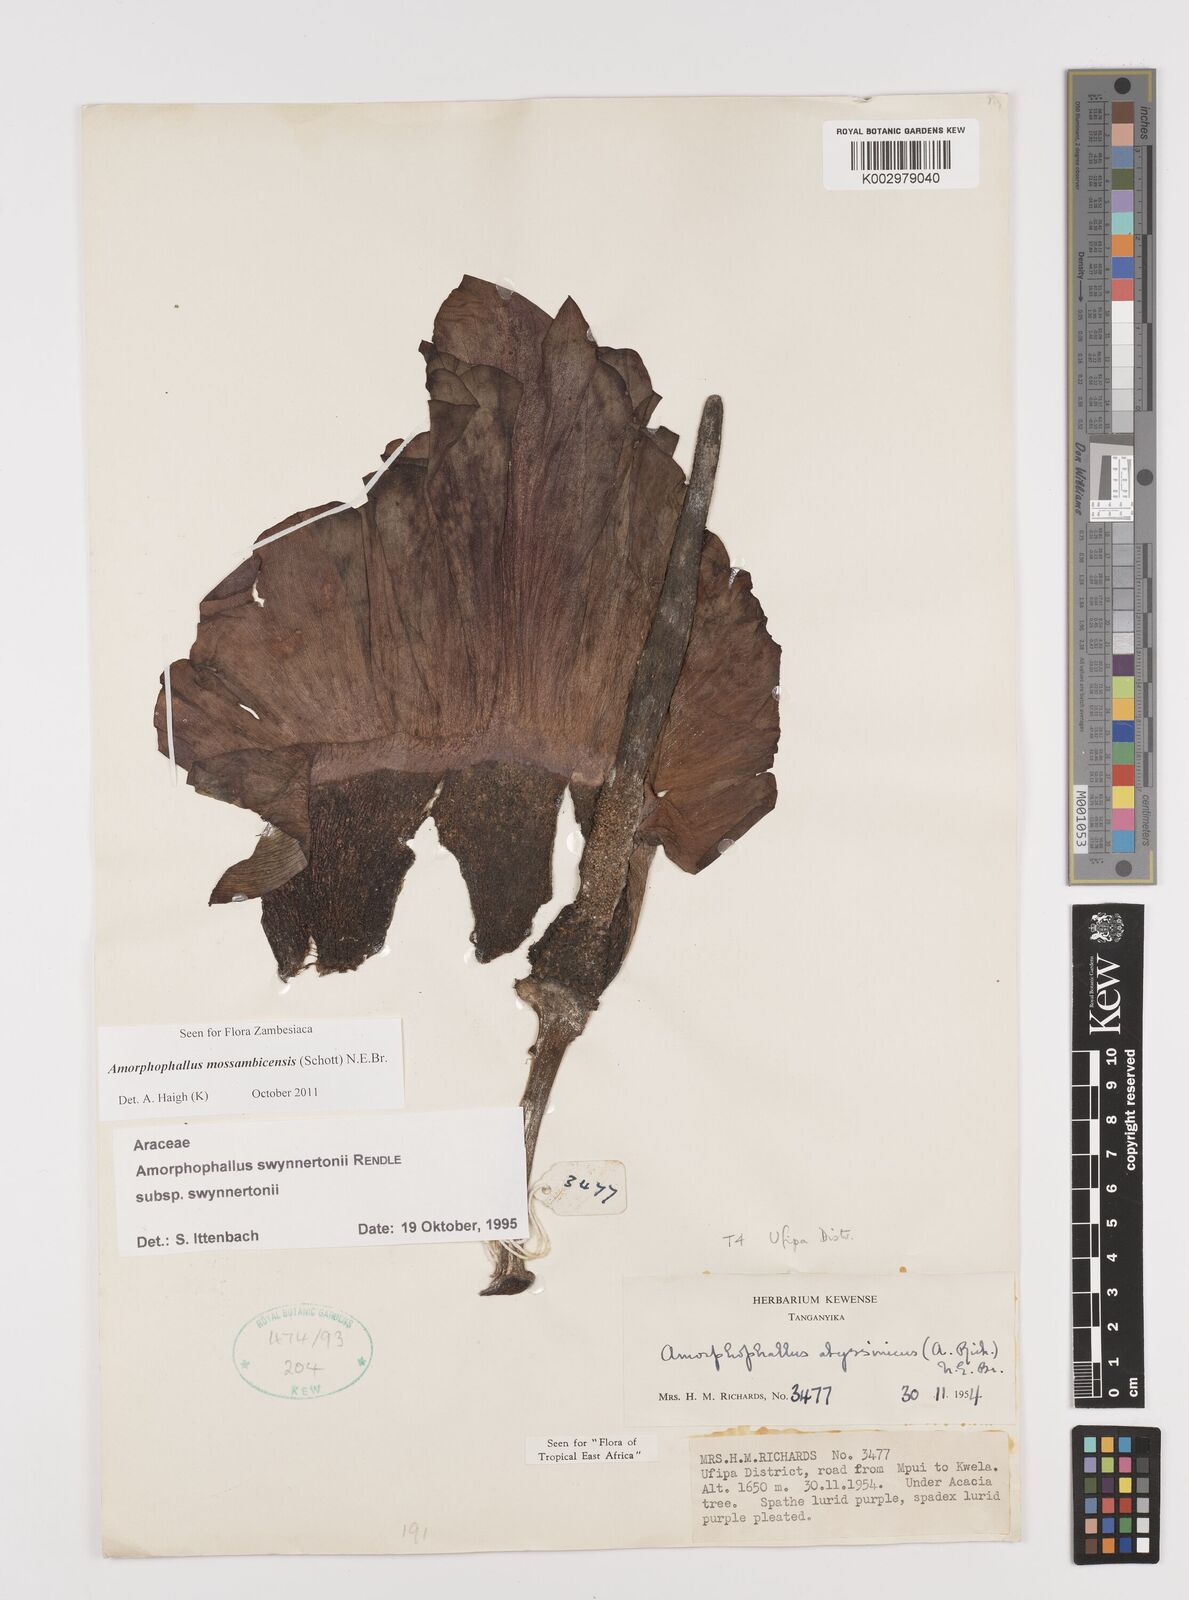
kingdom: Plantae
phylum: Tracheophyta
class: Liliopsida
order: Alismatales
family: Araceae
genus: Amorphophallus
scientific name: Amorphophallus mossambicensis
